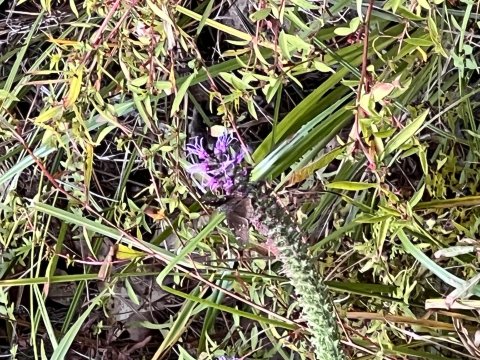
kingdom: Animalia
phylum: Arthropoda
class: Insecta
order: Lepidoptera
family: Hesperiidae
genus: Thorybes
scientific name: Thorybes mexicana
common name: Confused Cloudywing
